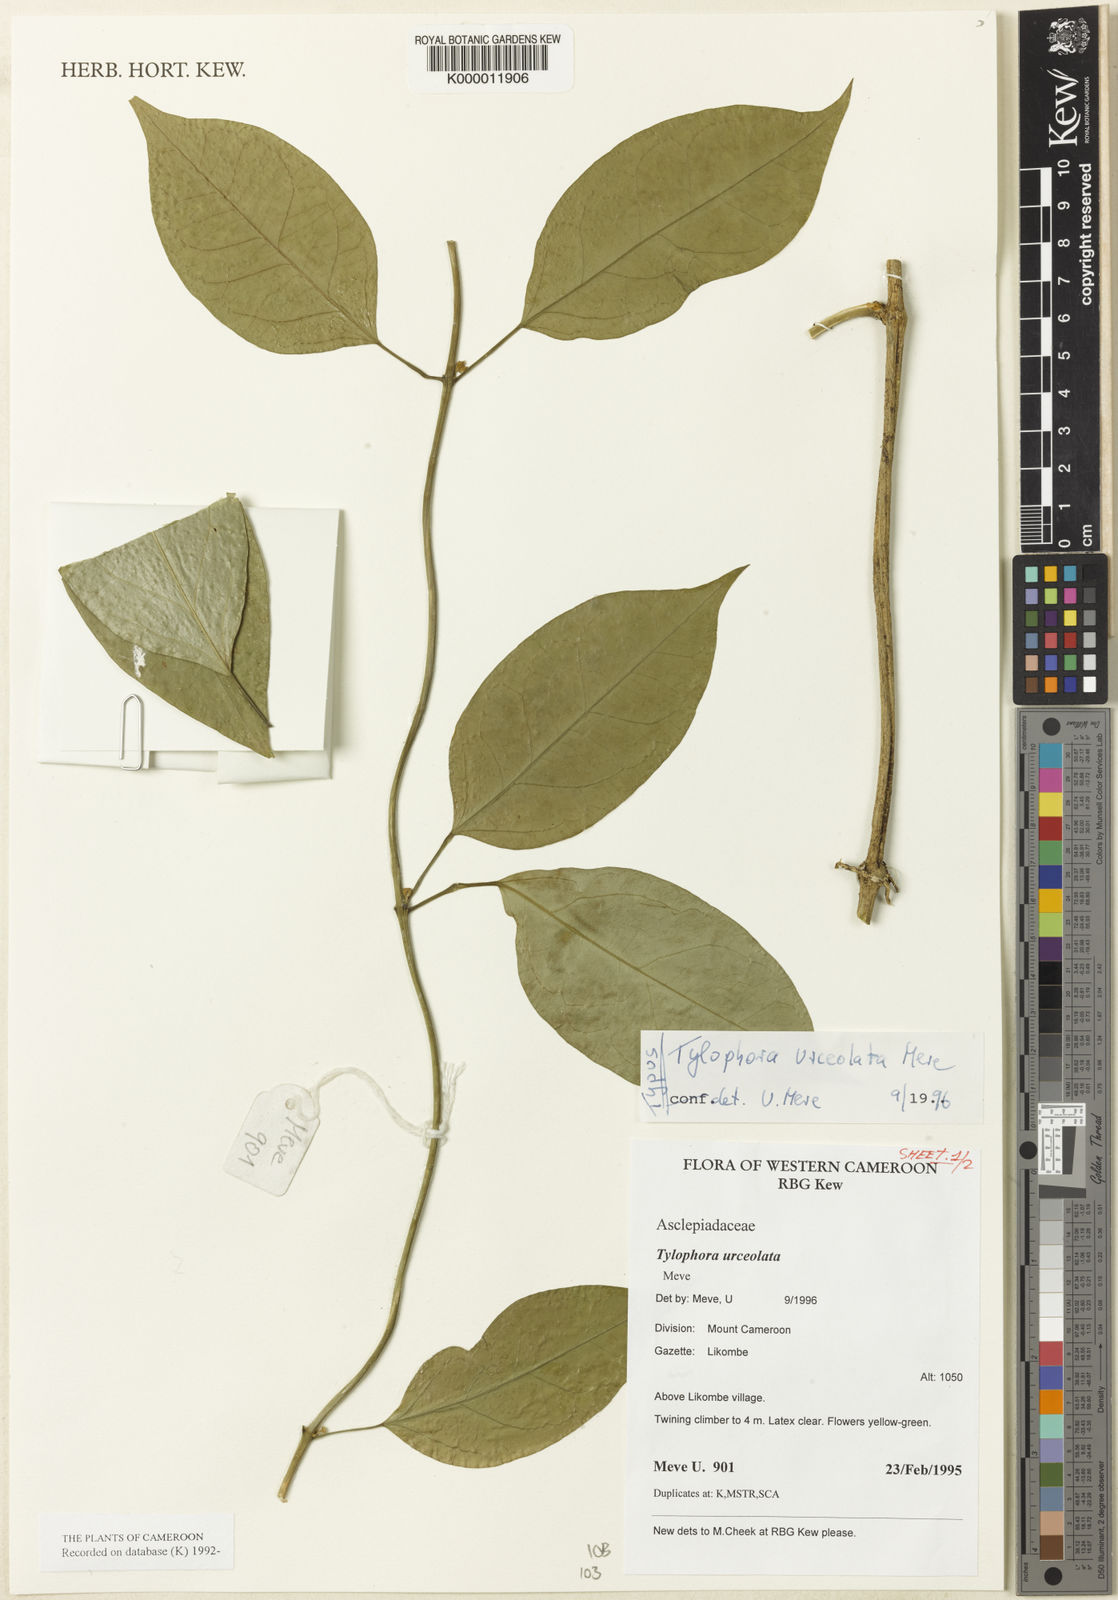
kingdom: Plantae
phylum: Tracheophyta
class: Magnoliopsida
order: Gentianales
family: Apocynaceae
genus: Vincetoxicum
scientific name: Vincetoxicum anomalum
